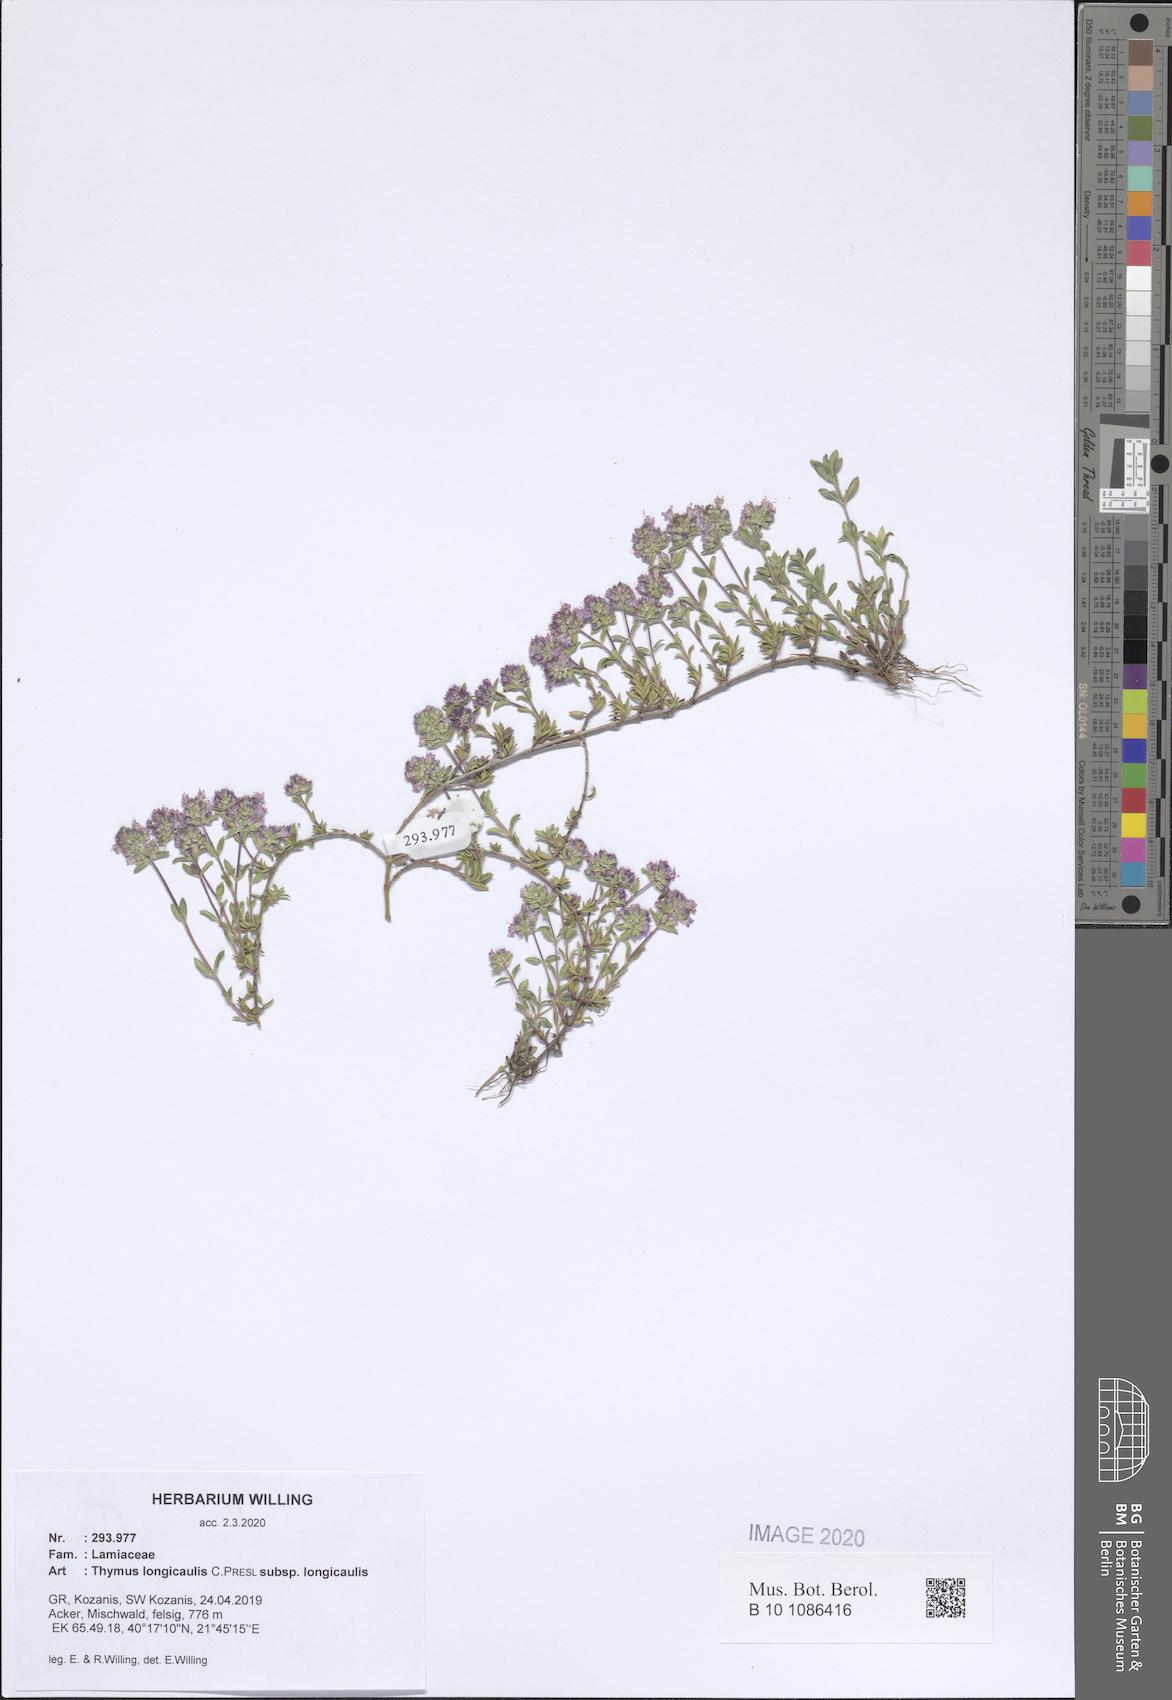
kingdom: Plantae
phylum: Tracheophyta
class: Magnoliopsida
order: Lamiales
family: Lamiaceae
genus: Thymus
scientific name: Thymus longicaulis
